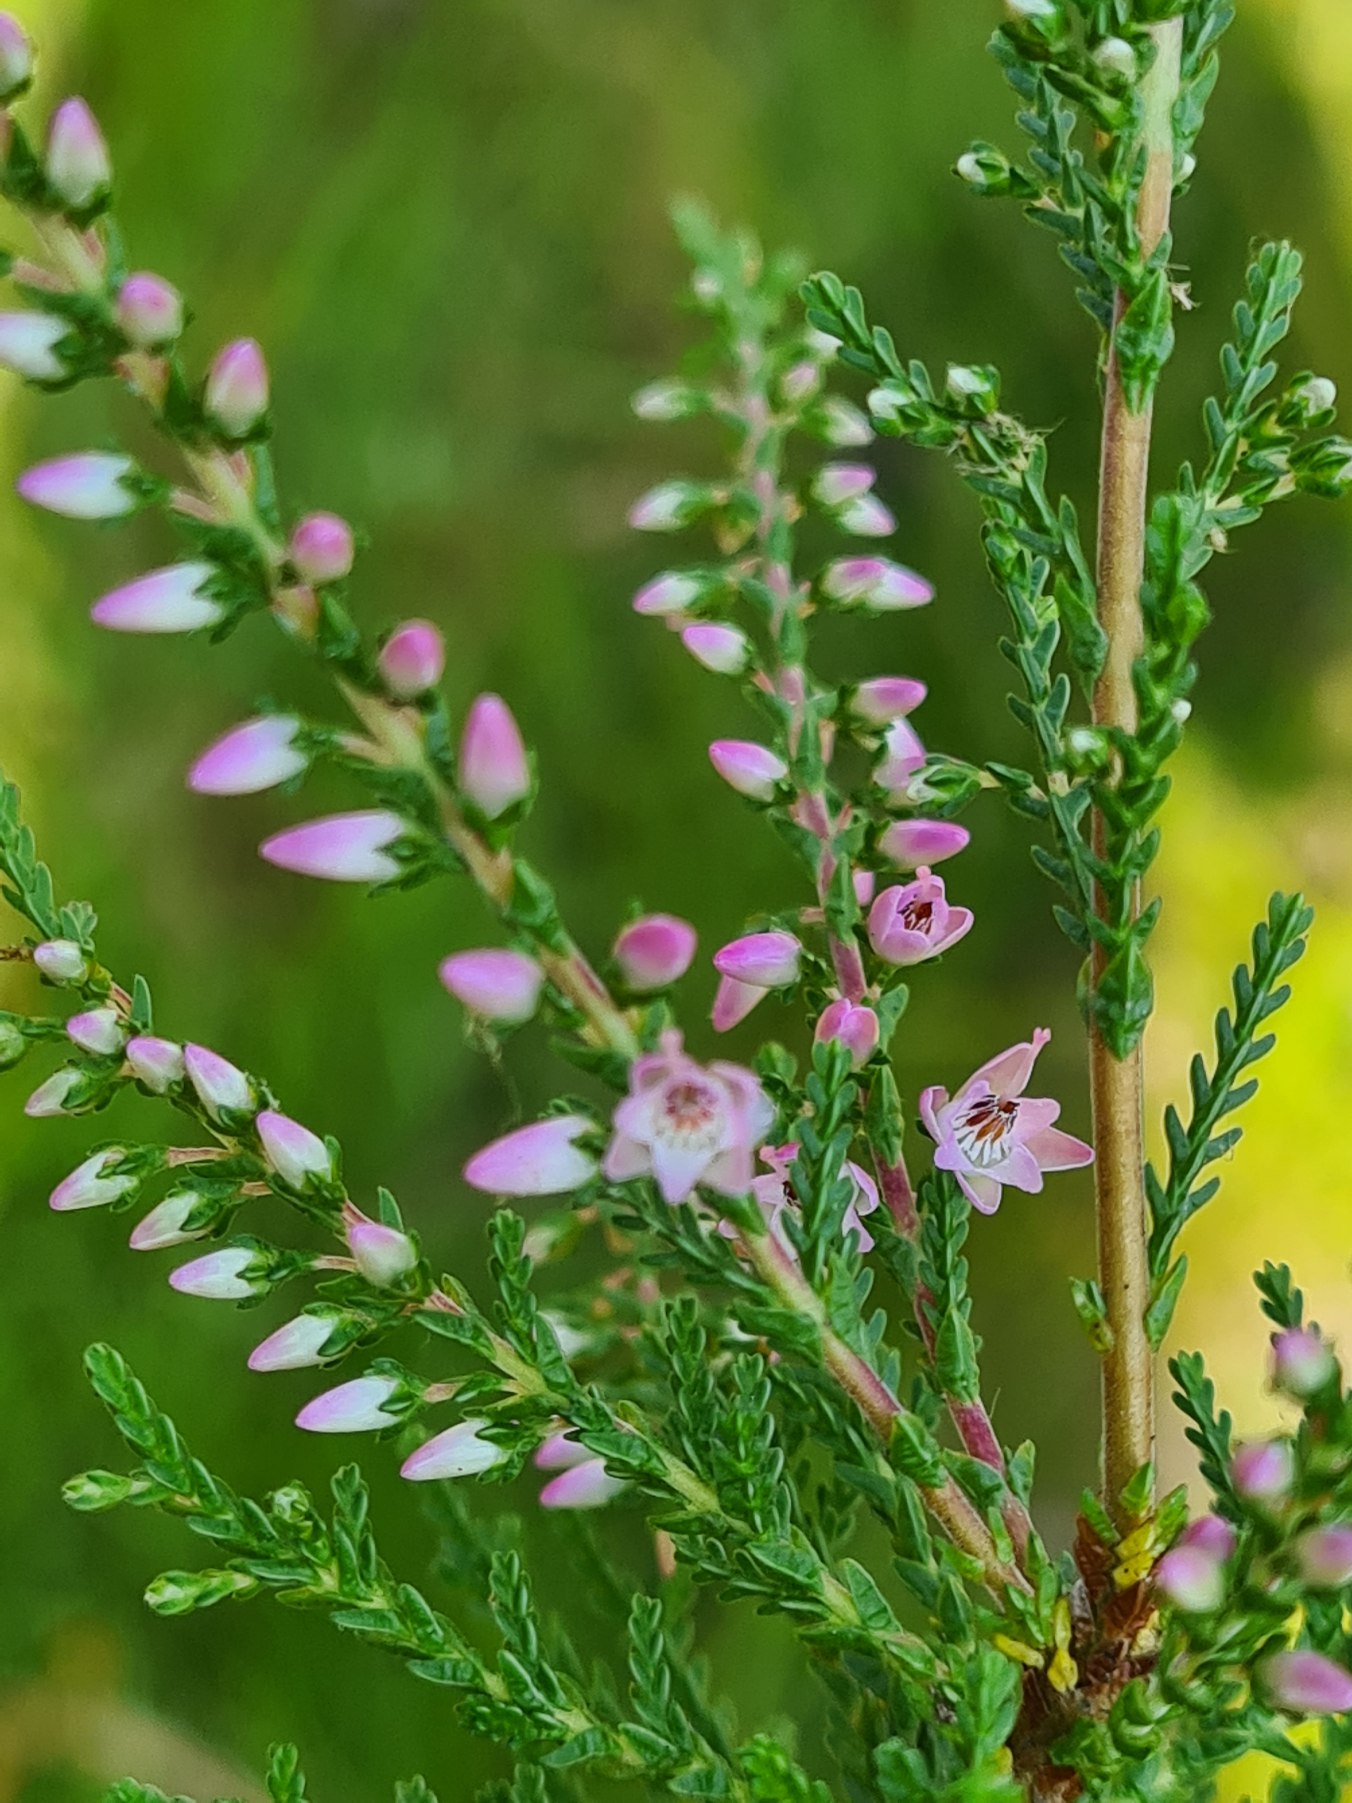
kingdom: Plantae
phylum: Tracheophyta
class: Magnoliopsida
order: Ericales
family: Ericaceae
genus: Calluna
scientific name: Calluna vulgaris
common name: Hedelyng
